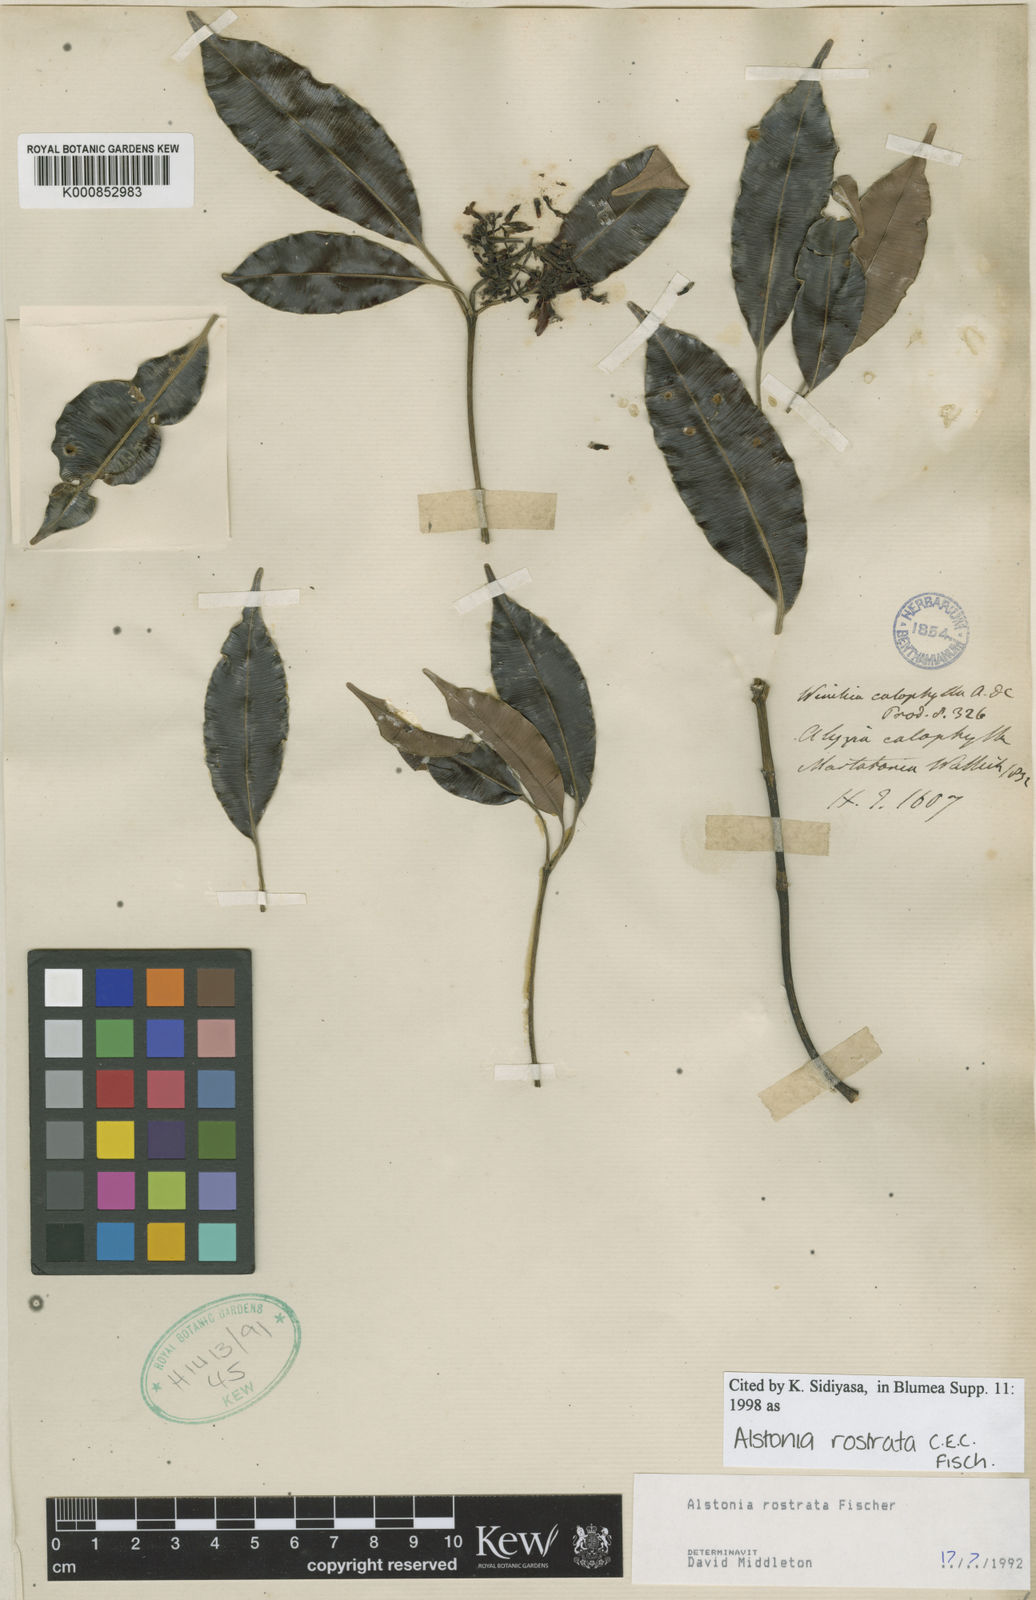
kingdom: Plantae
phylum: Tracheophyta
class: Magnoliopsida
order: Gentianales
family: Apocynaceae
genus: Alstonia
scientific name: Alstonia rostrata
